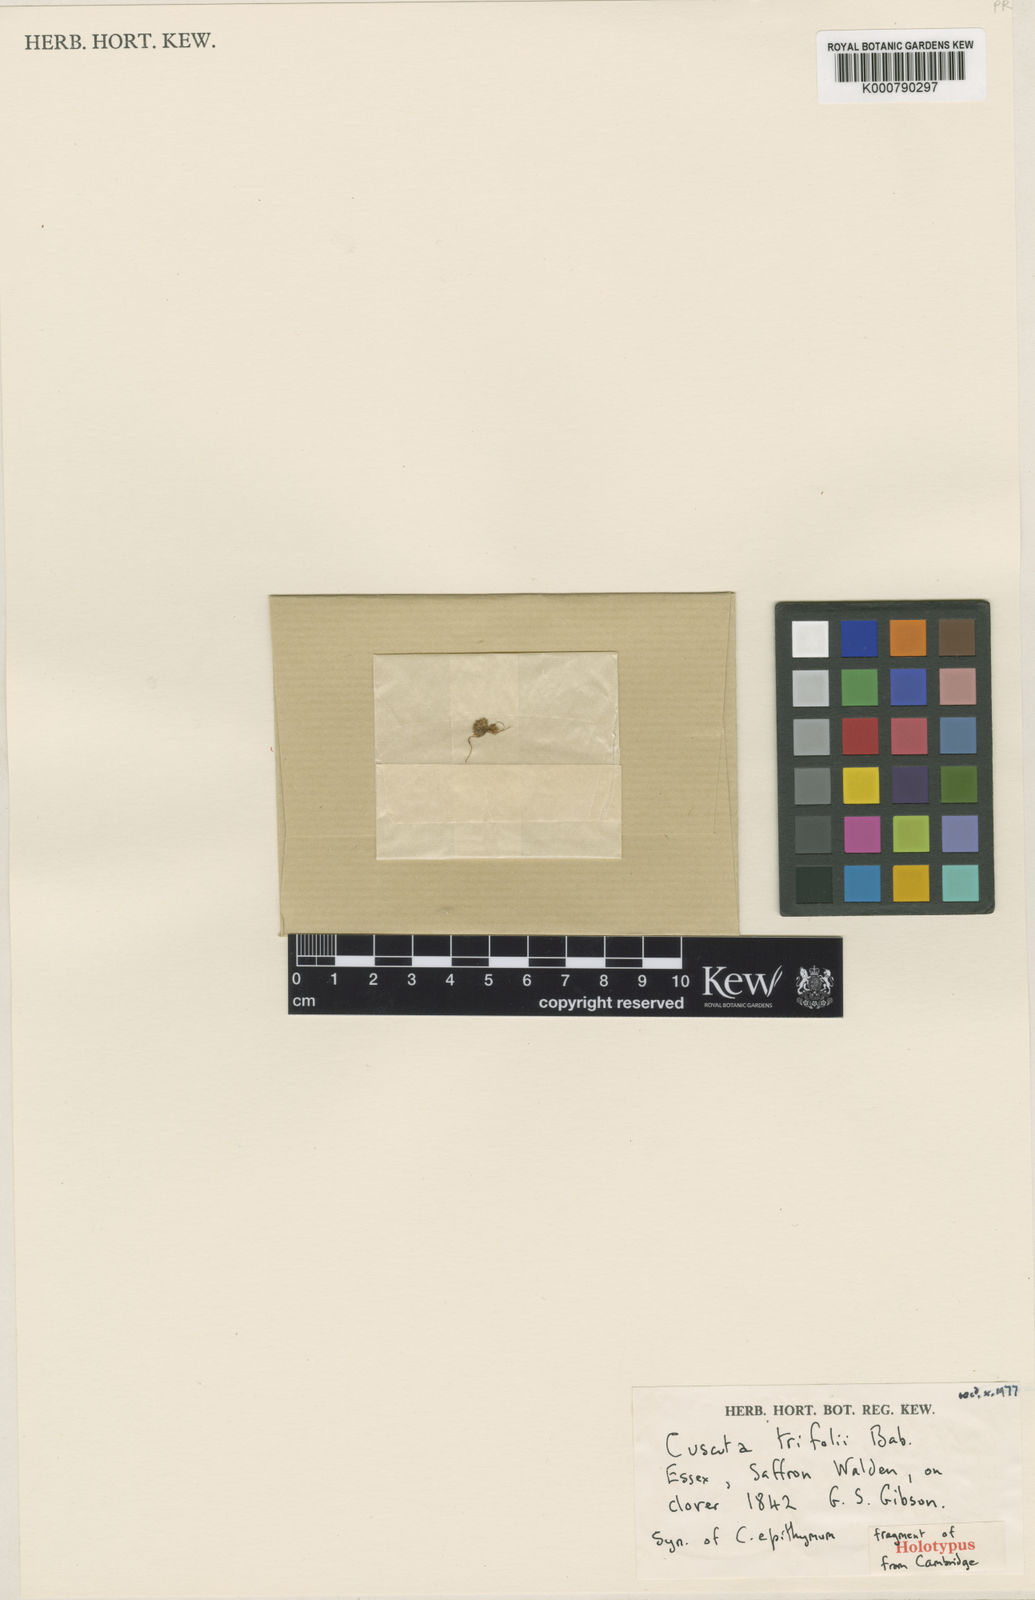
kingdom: Plantae
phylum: Tracheophyta
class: Magnoliopsida
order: Solanales
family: Convolvulaceae
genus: Cuscuta
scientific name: Cuscuta epithymum
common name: Clover dodder
